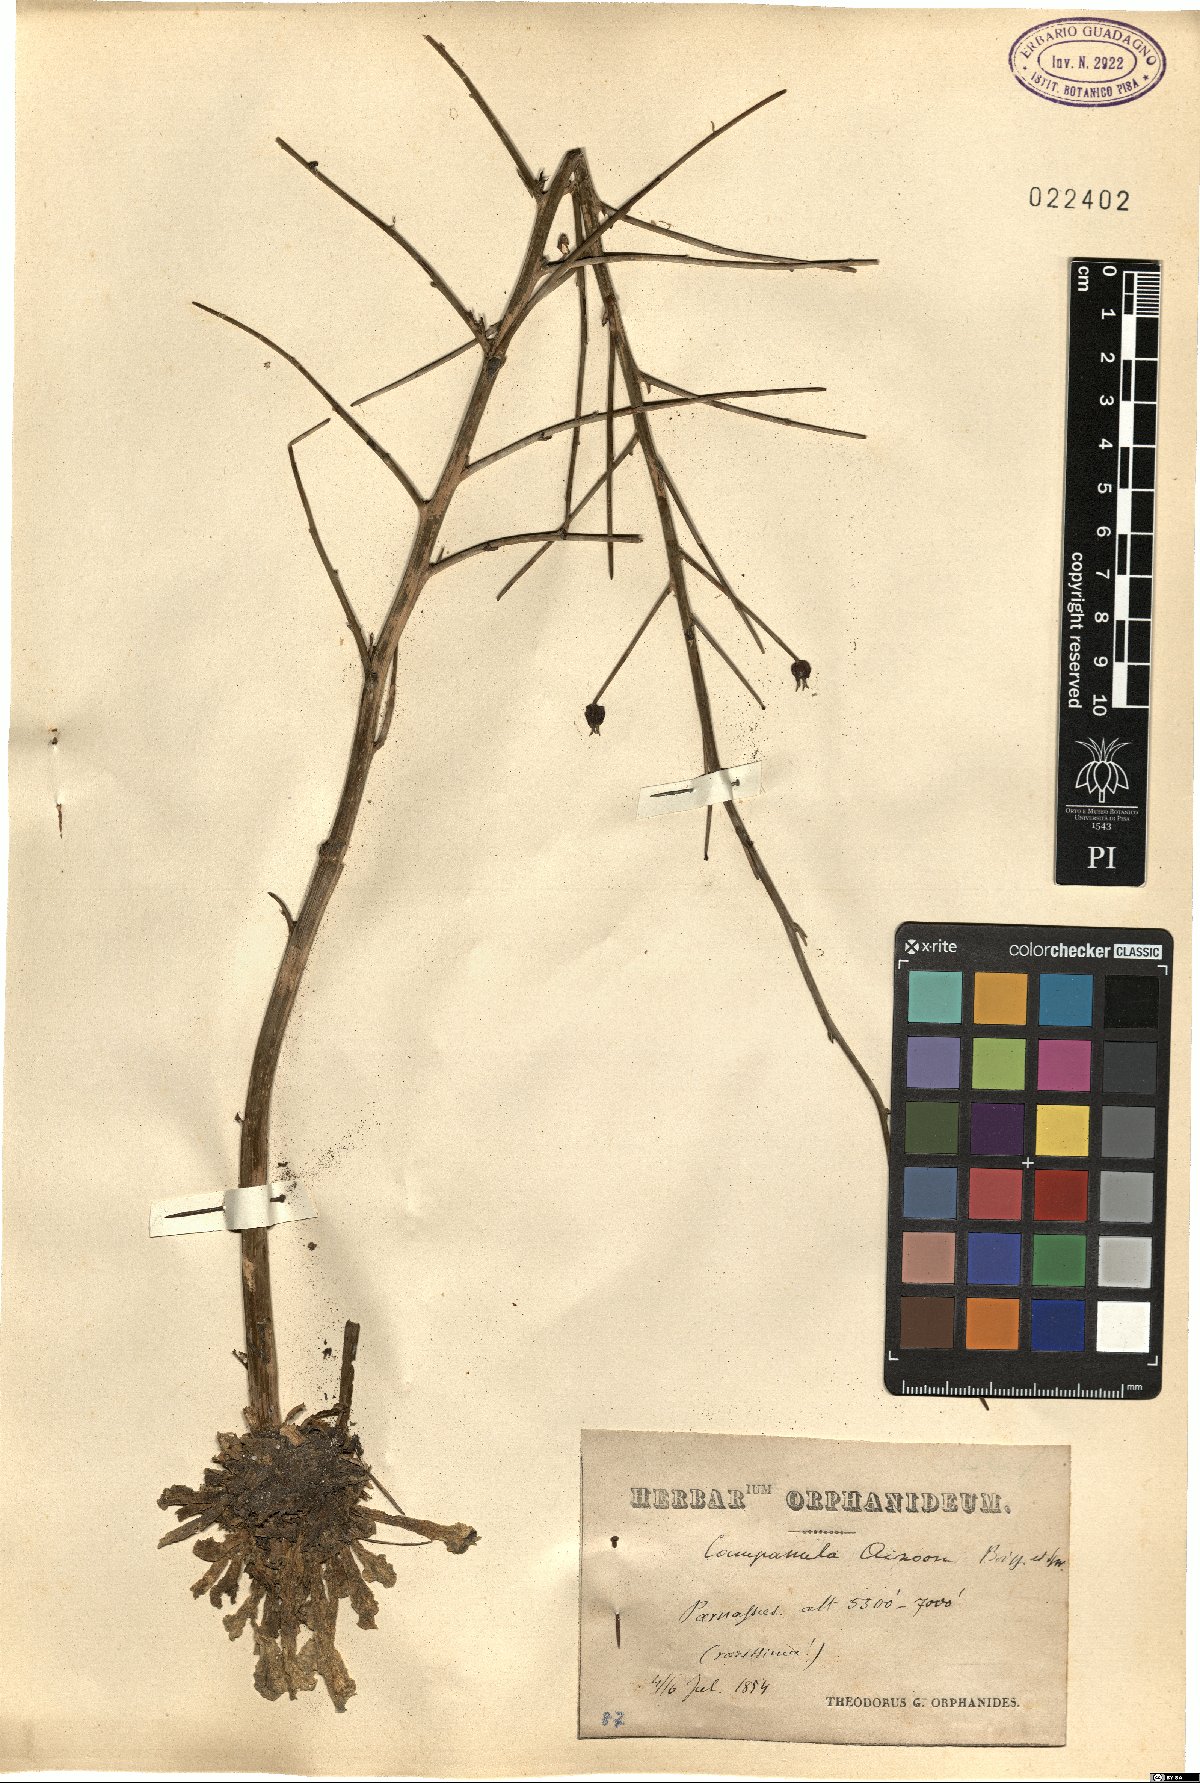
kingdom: Plantae
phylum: Tracheophyta
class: Magnoliopsida
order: Asterales
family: Campanulaceae
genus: Campanula
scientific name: Campanula aizoon
